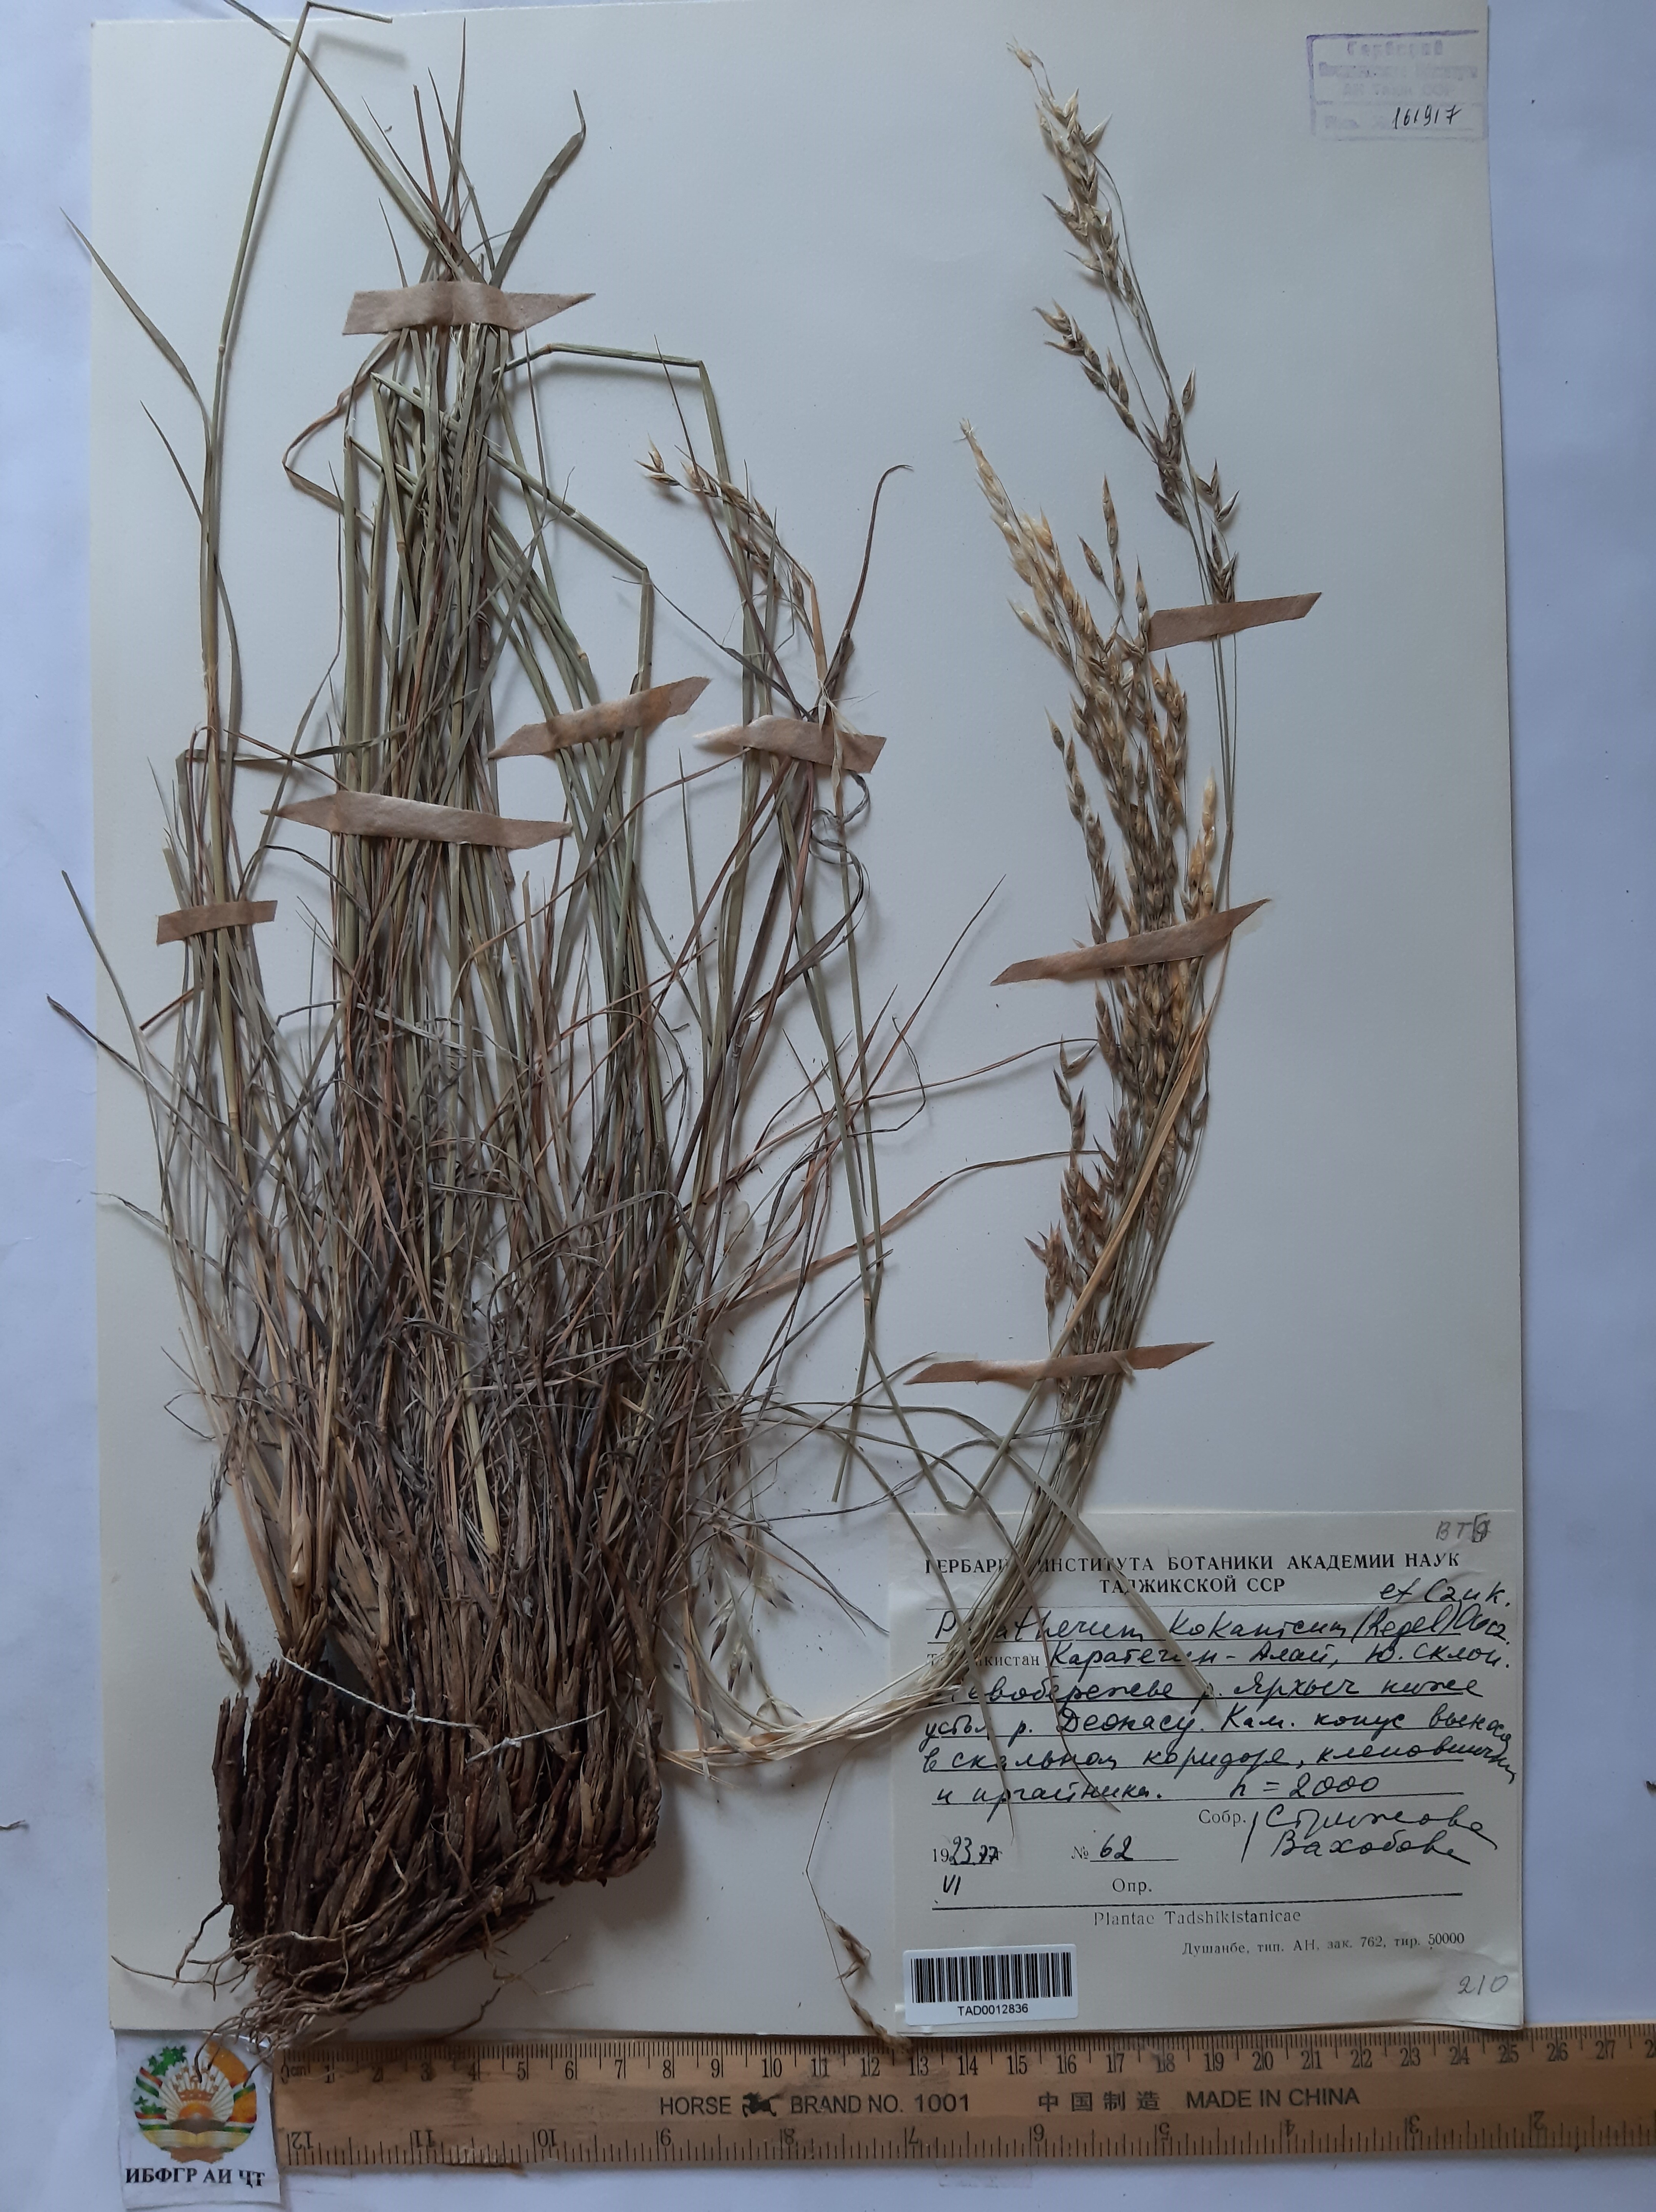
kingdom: Plantae
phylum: Tracheophyta
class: Liliopsida
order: Poales
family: Poaceae
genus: Piptatherum
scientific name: Piptatherum songaricum
